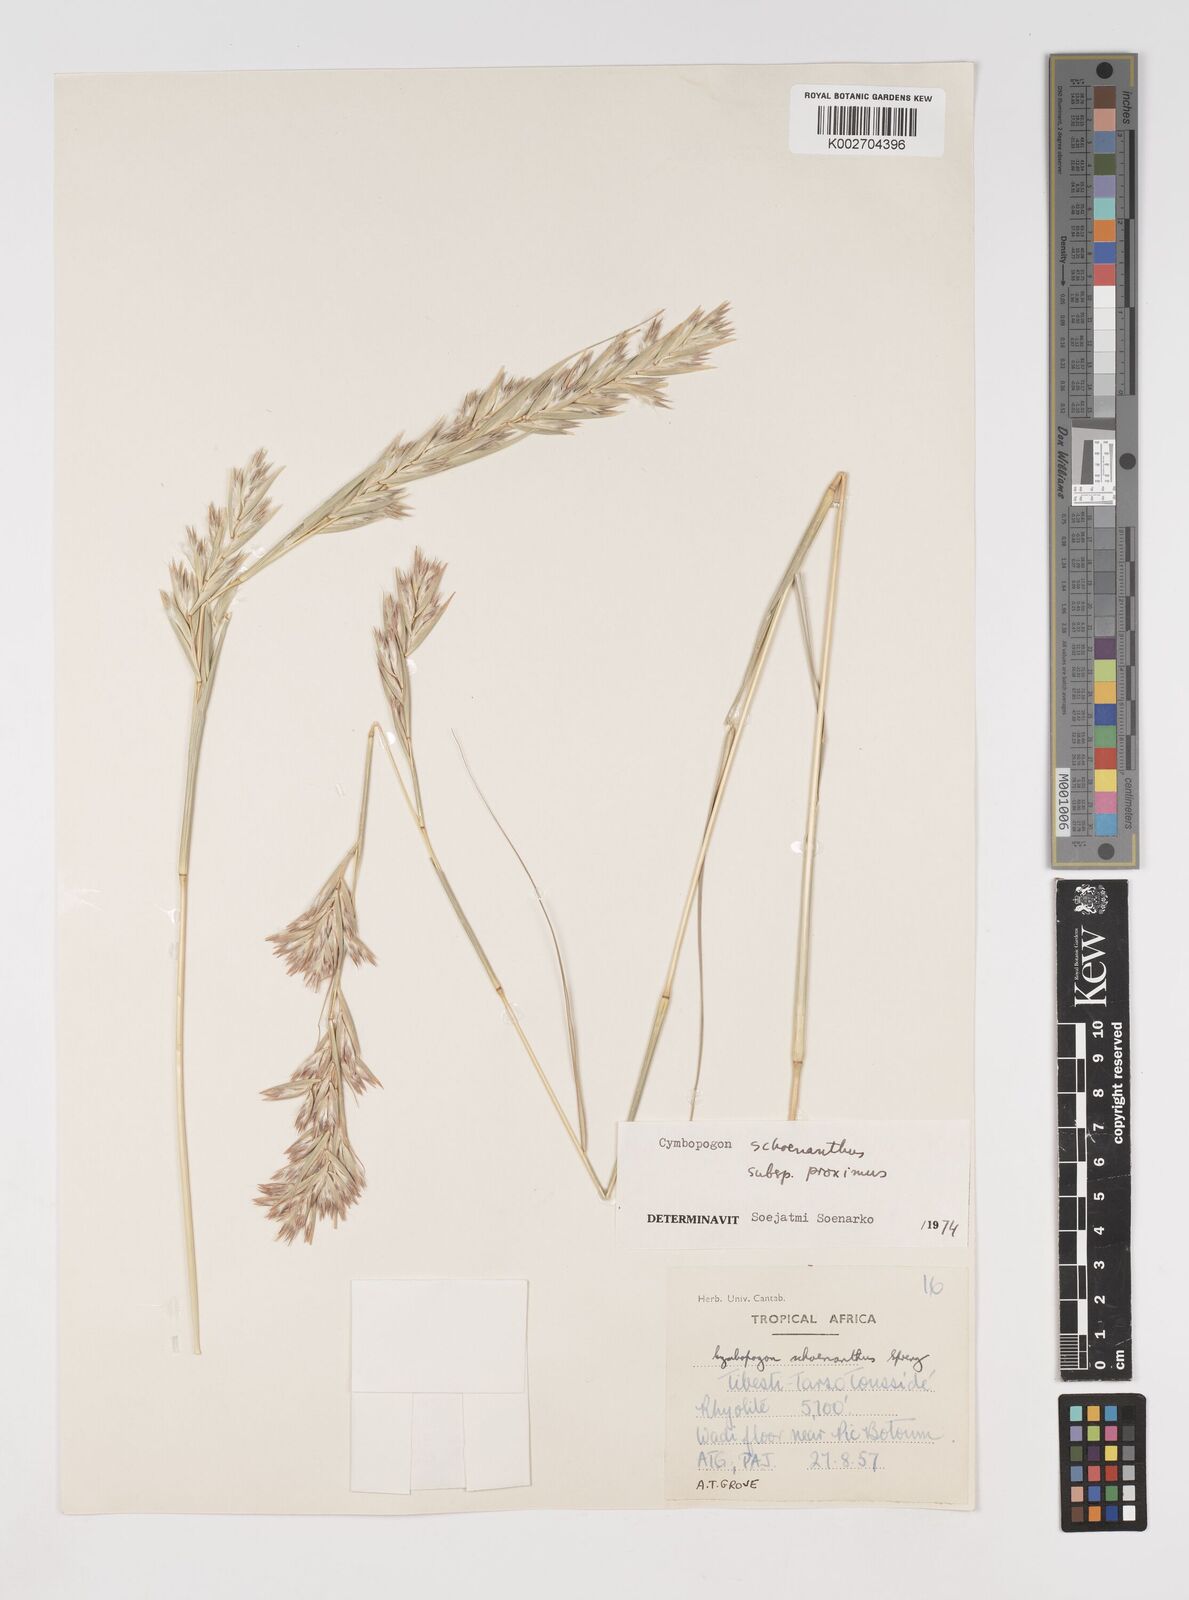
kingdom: Plantae
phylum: Tracheophyta
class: Liliopsida
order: Poales
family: Poaceae
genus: Cymbopogon
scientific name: Cymbopogon schoenanthus
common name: Geranium grass
